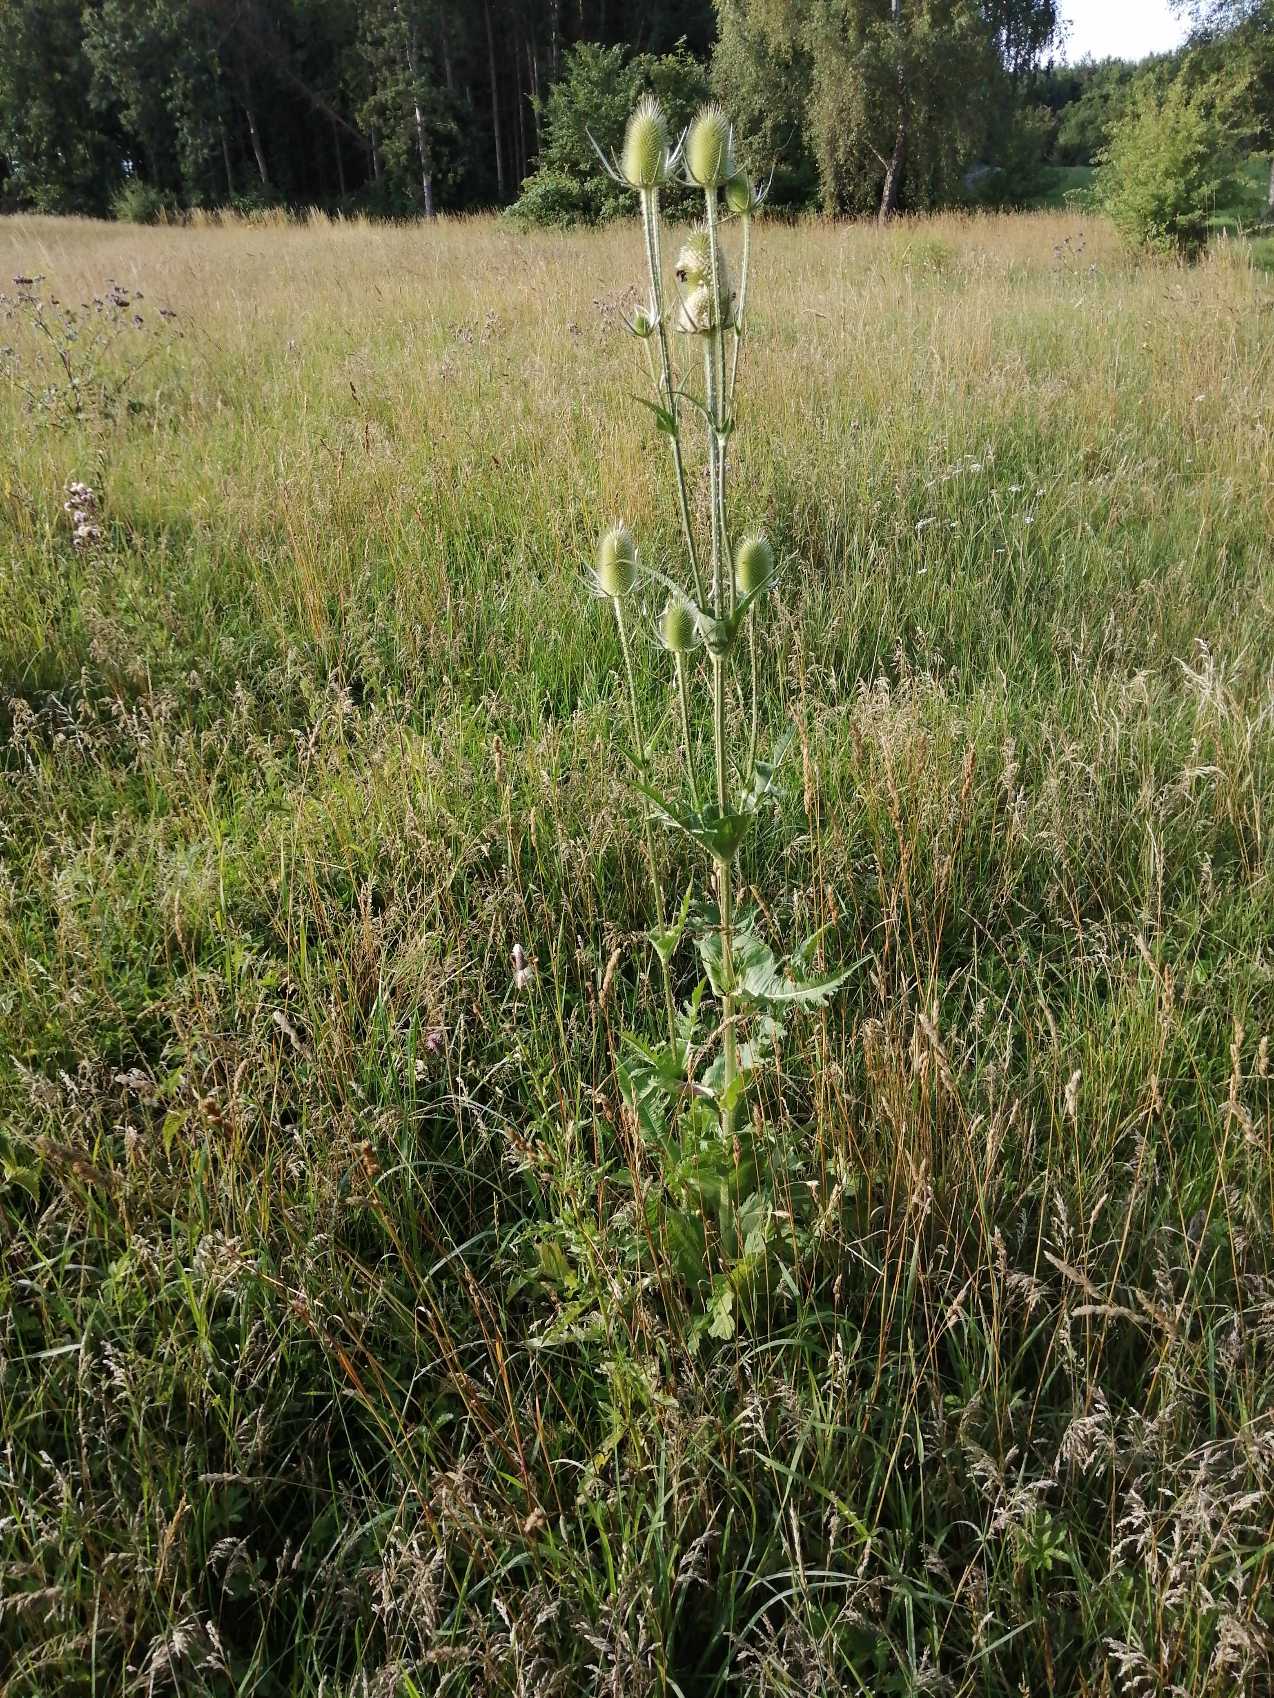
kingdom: Plantae
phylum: Tracheophyta
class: Magnoliopsida
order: Dipsacales
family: Caprifoliaceae
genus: Dipsacus
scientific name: Dipsacus laciniatus
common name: Fliget kartebolle
